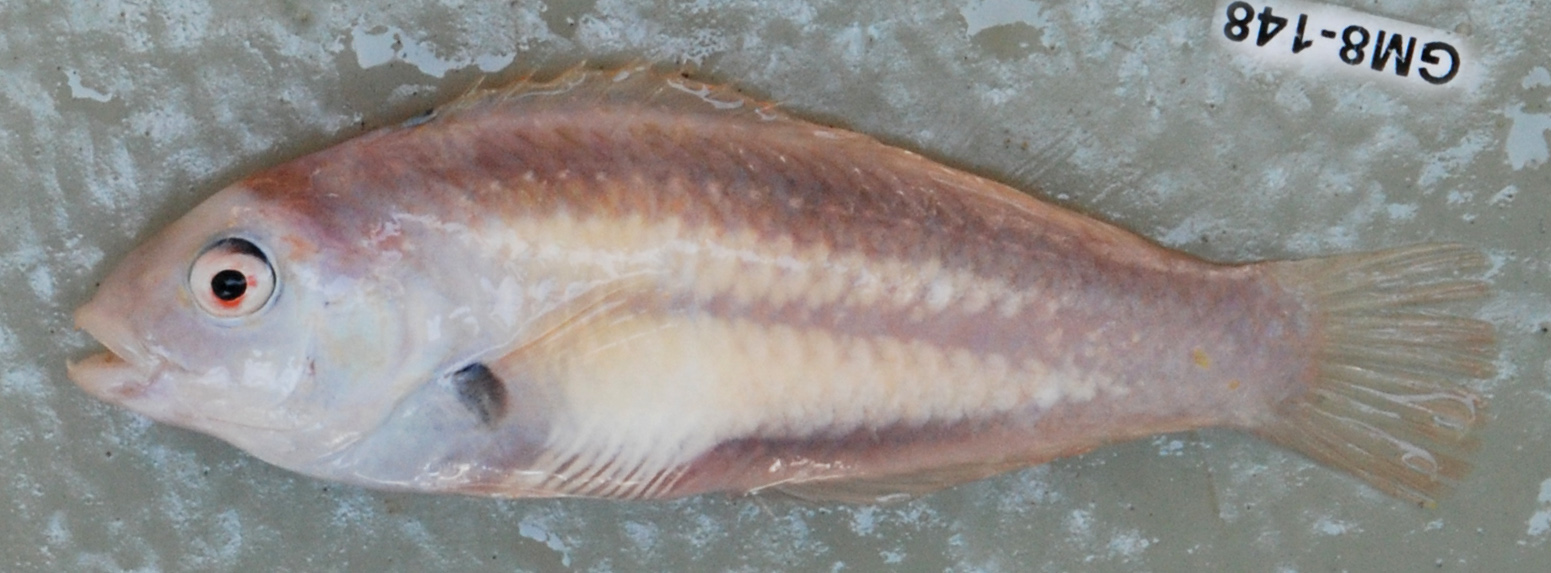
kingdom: Animalia
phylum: Chordata
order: Perciformes
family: Labridae
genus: Novaculops
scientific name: Novaculops alvheimi
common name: St. brandon’s sandy
